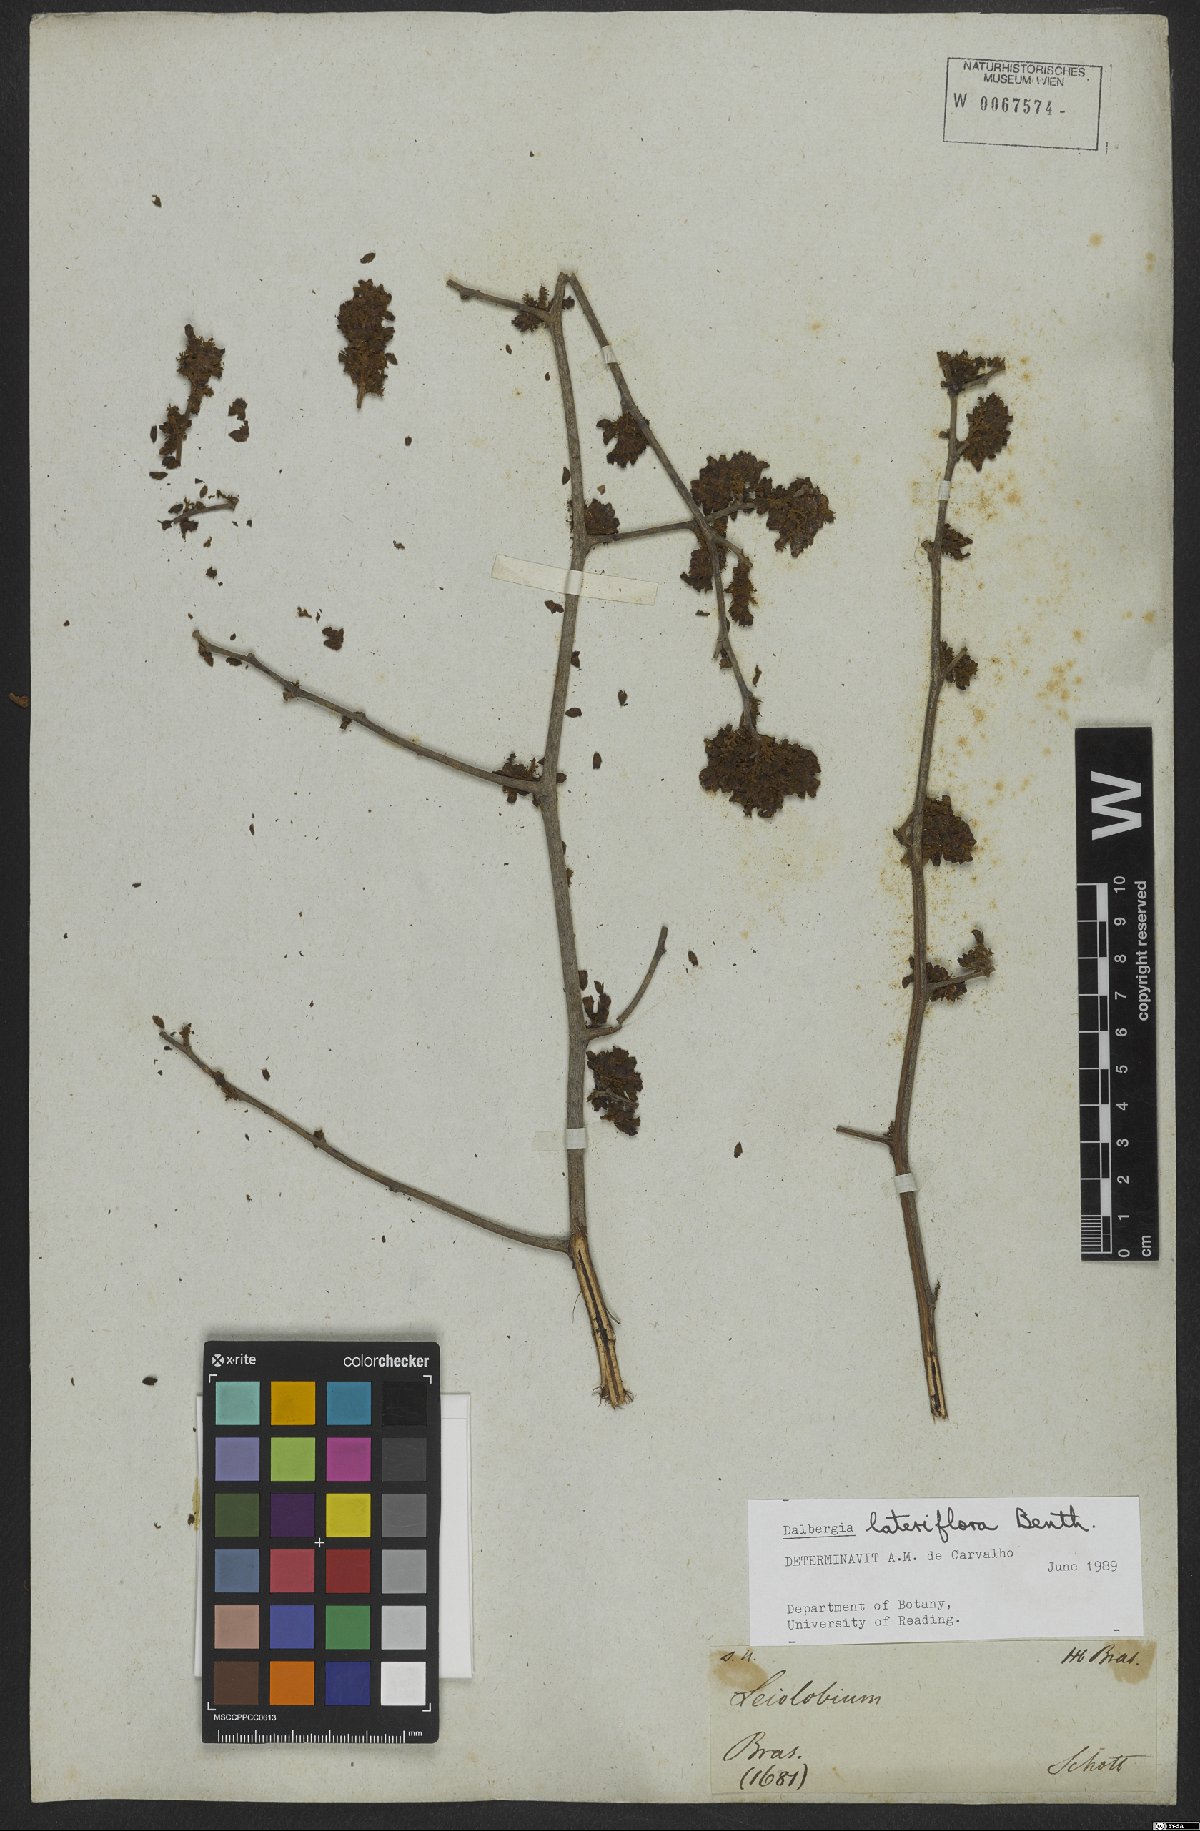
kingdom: Plantae
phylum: Tracheophyta
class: Magnoliopsida
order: Fabales
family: Fabaceae
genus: Dalbergia
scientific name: Dalbergia lateriflora
